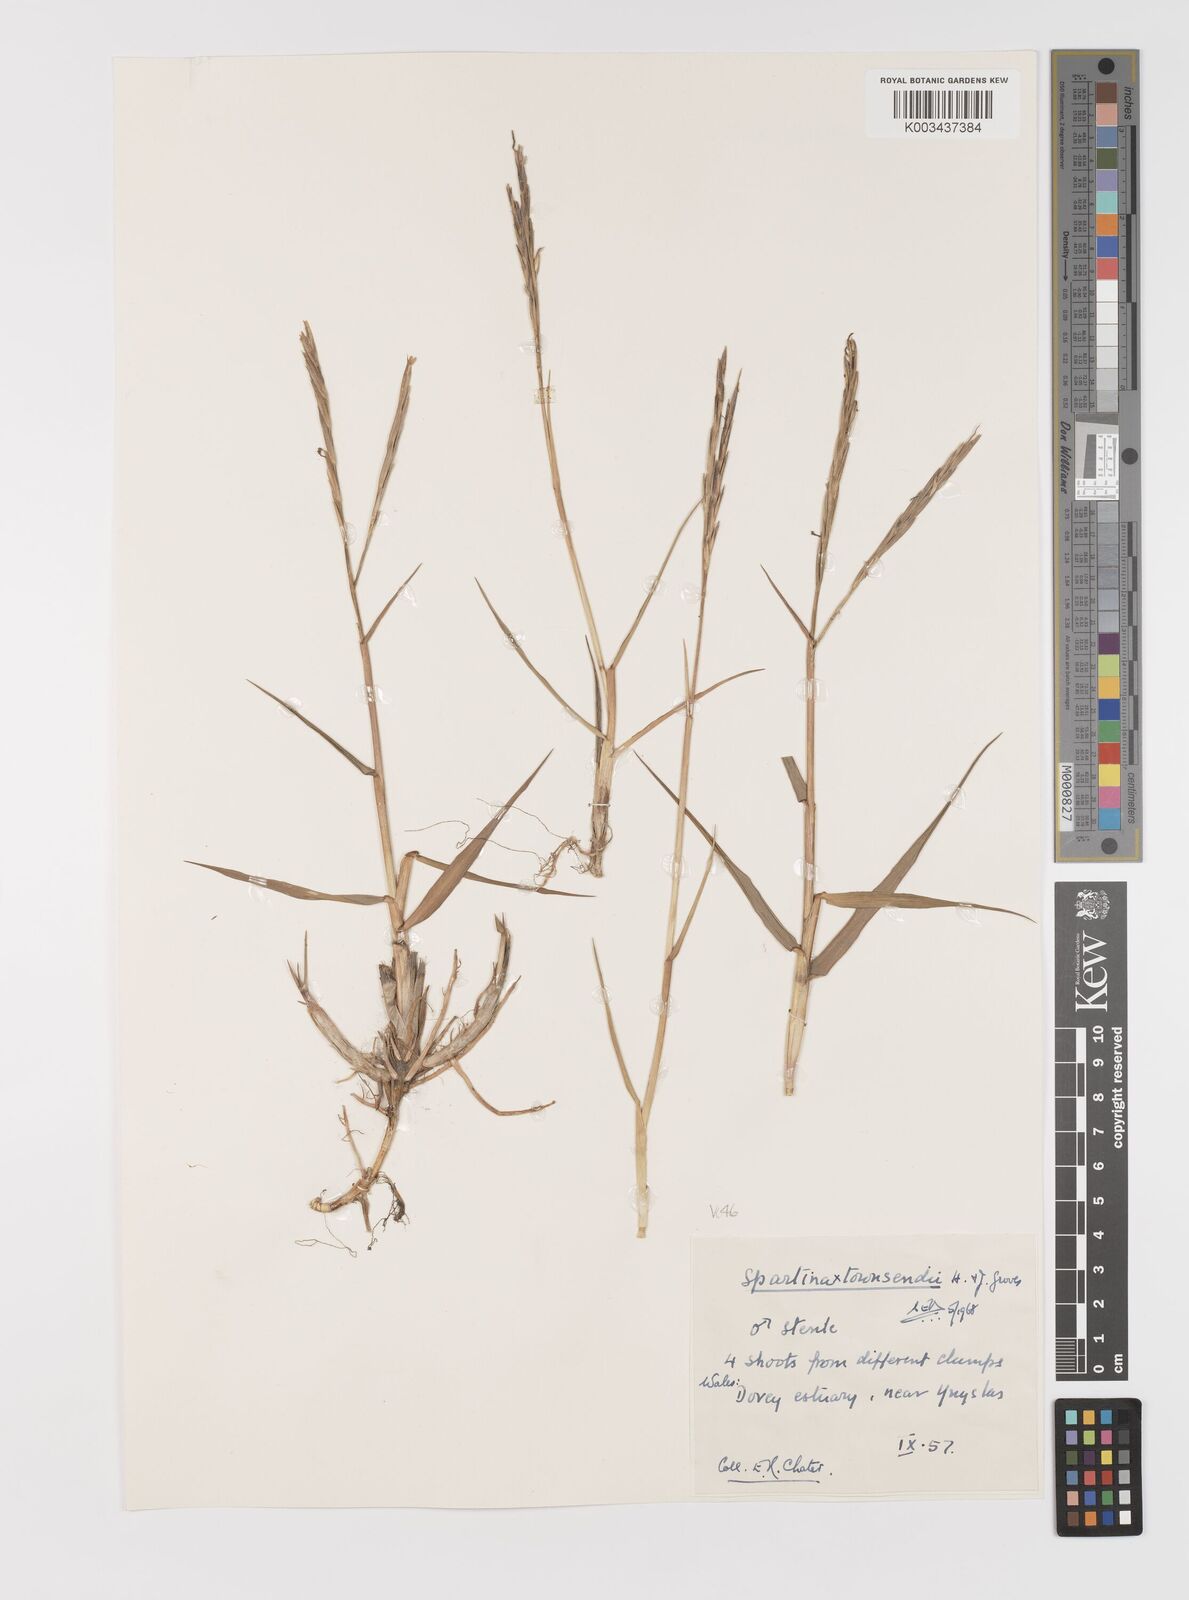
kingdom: Plantae
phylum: Tracheophyta
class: Liliopsida
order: Poales
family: Poaceae
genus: Sporobolus
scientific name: Sporobolus townsendii
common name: Townsend's cordgrass
